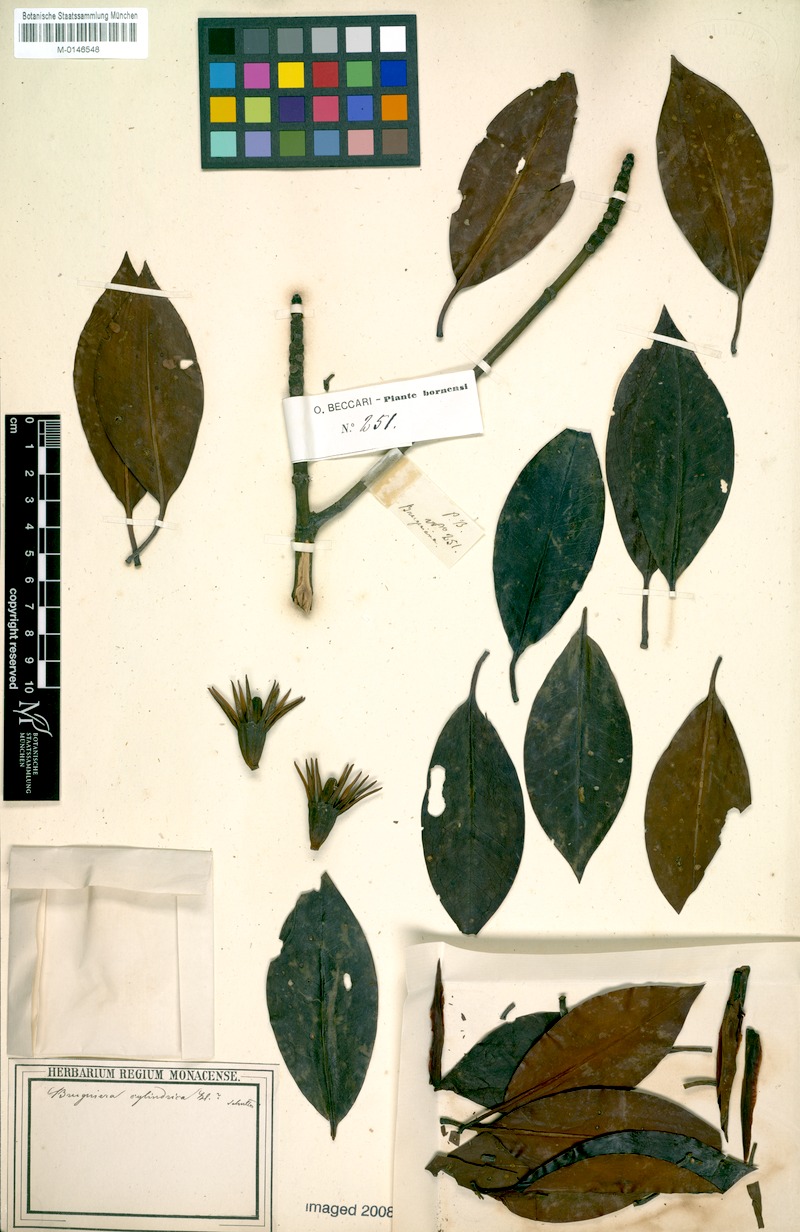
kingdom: Plantae
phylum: Tracheophyta
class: Magnoliopsida
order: Malpighiales
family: Rhizophoraceae
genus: Bruguiera
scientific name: Bruguiera cylindrica
